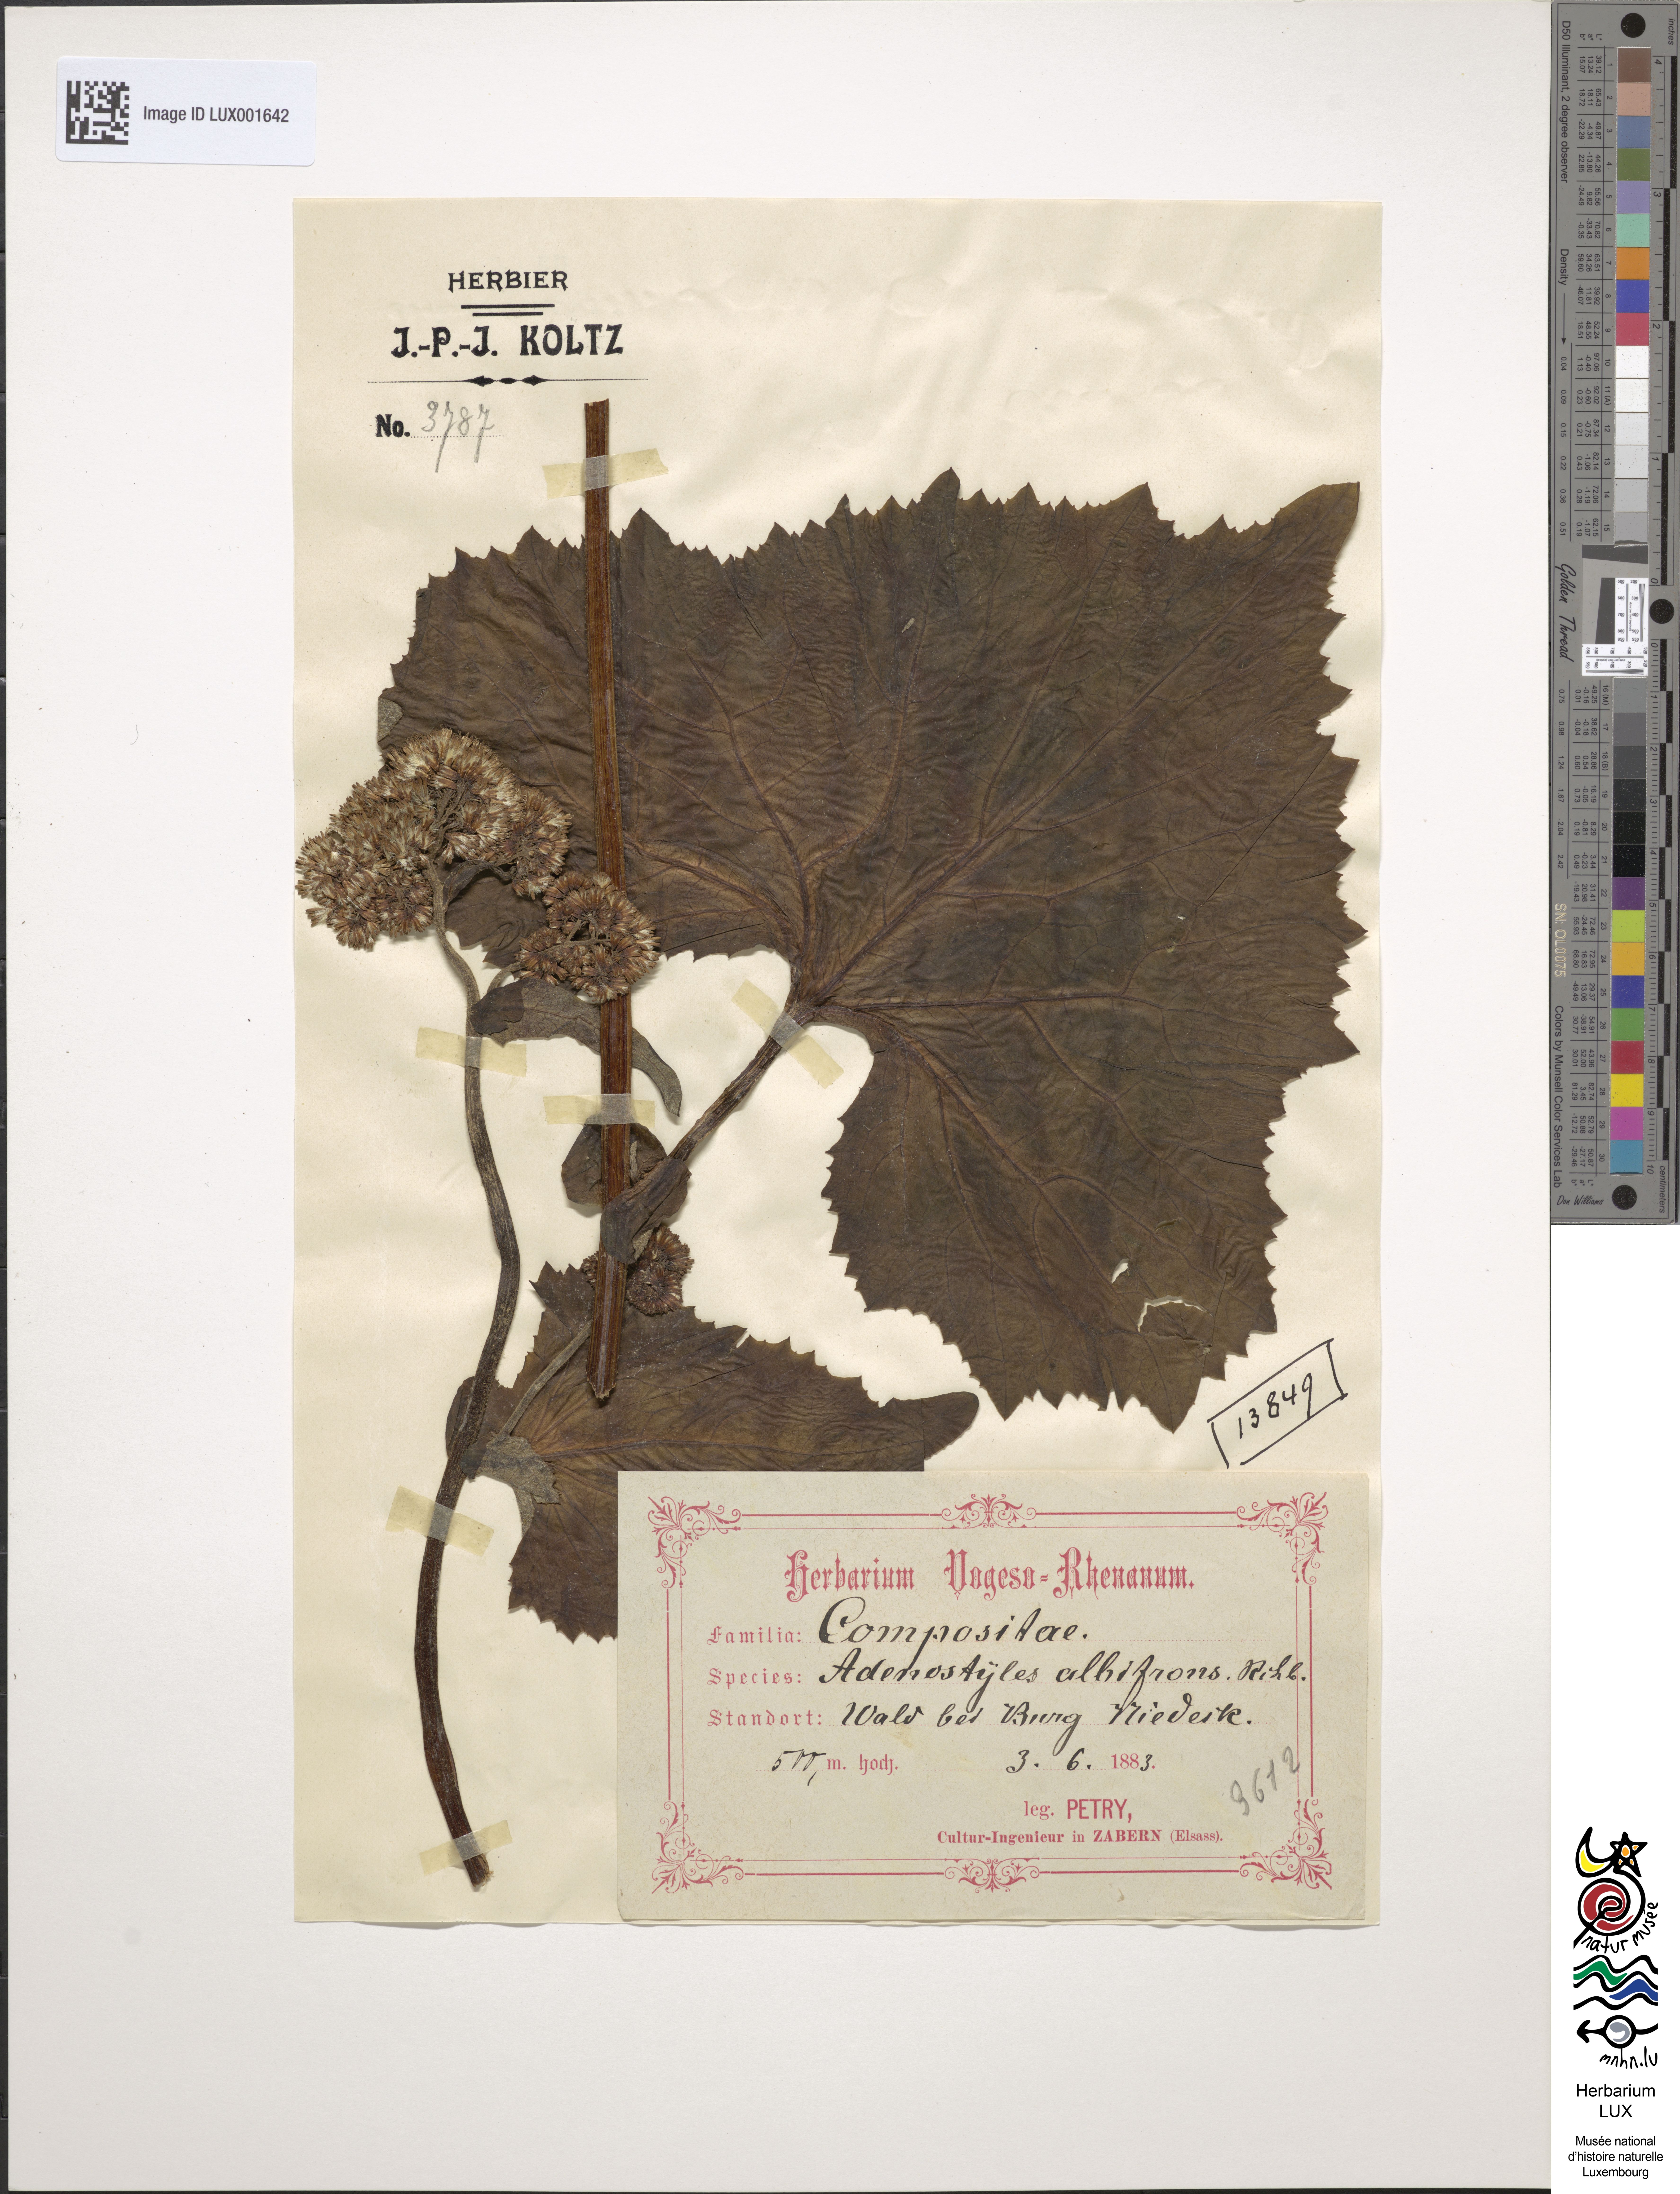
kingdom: Plantae
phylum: Tracheophyta
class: Magnoliopsida
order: Asterales
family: Asteraceae
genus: Adenostyles
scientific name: Adenostyles alliariae
